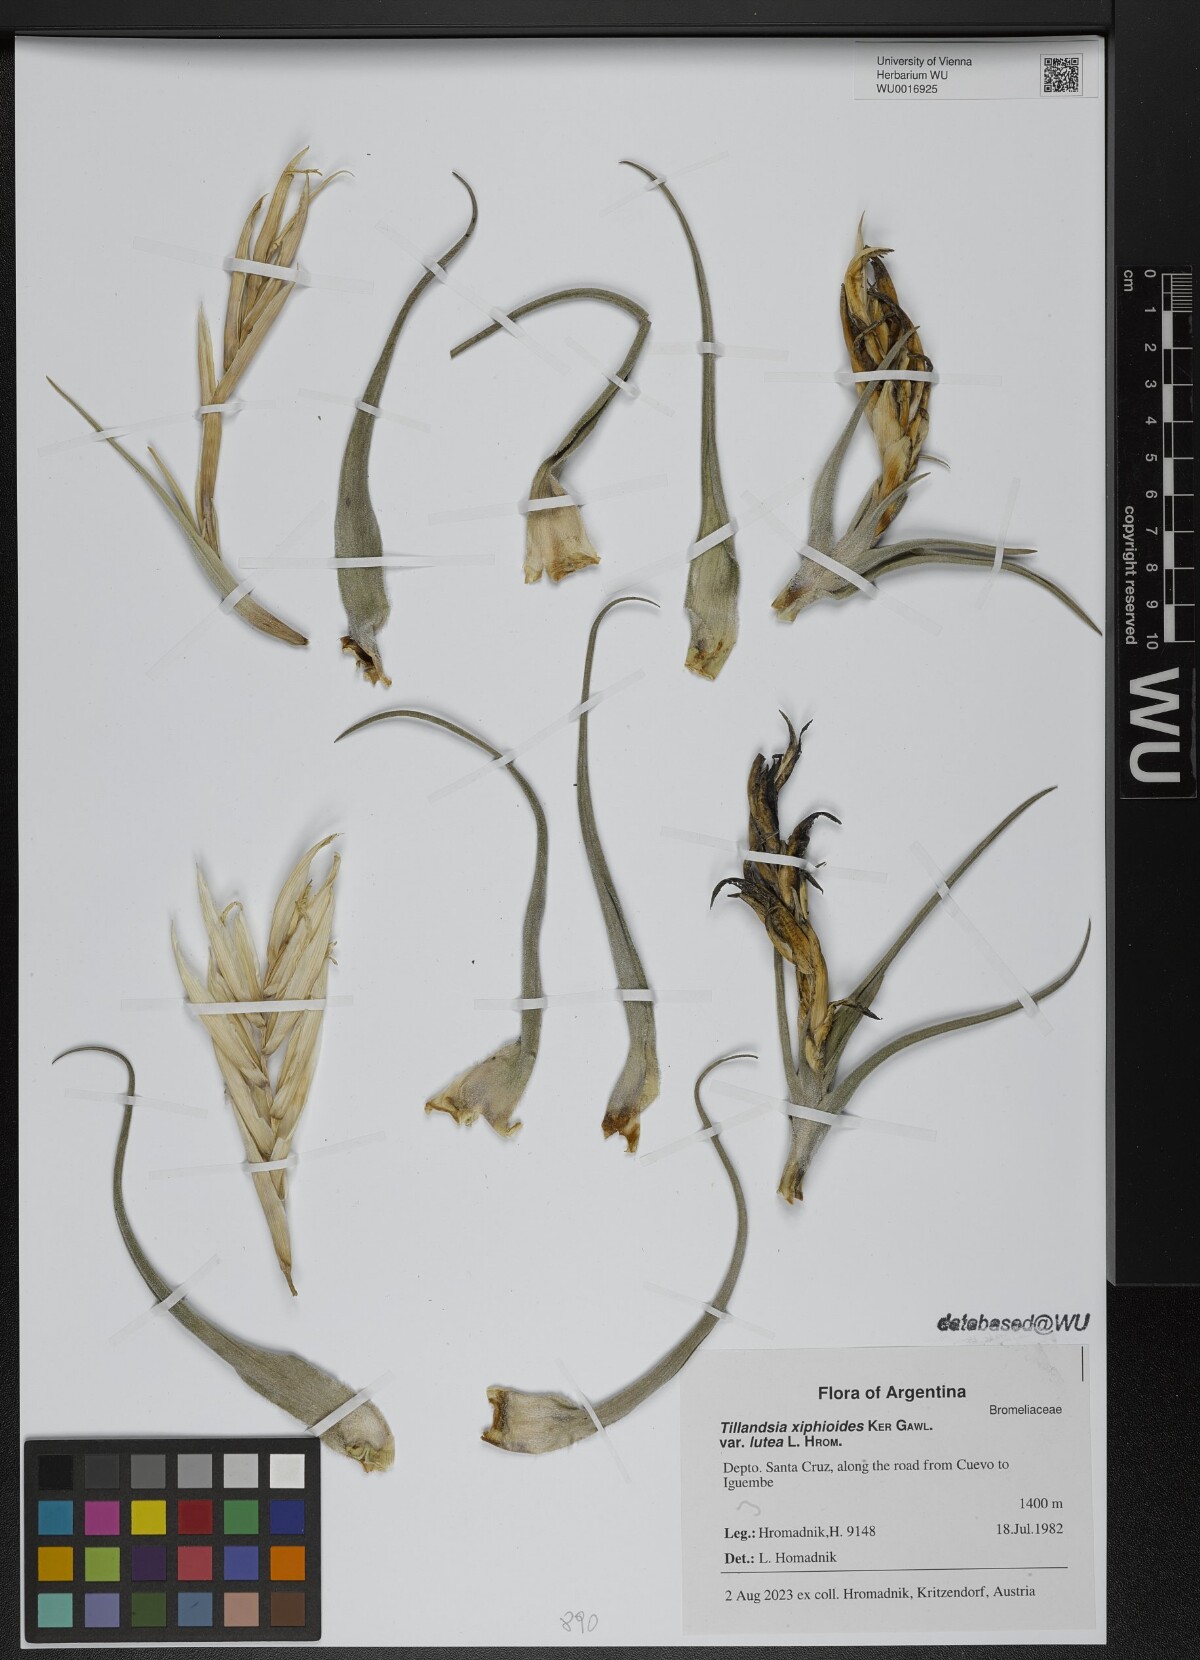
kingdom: Plantae
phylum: Tracheophyta
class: Liliopsida
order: Poales
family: Bromeliaceae
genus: Tillandsia
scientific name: Tillandsia xiphioides
